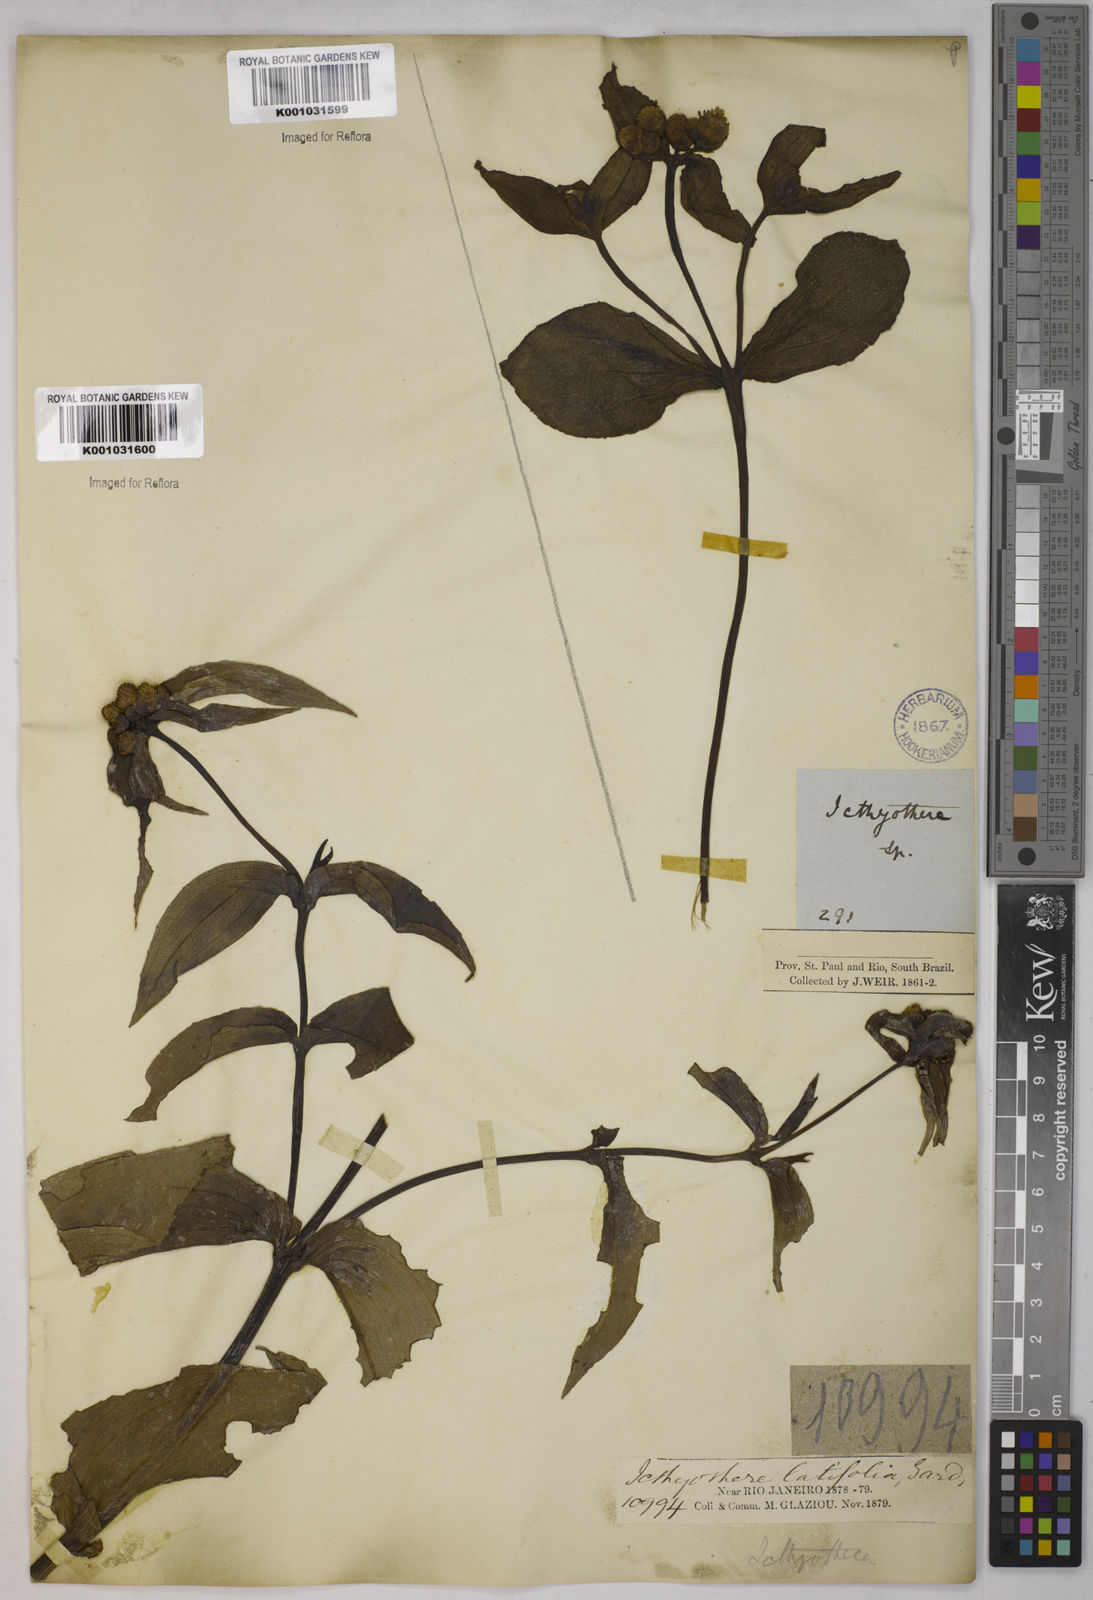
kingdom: Plantae
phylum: Tracheophyta
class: Magnoliopsida
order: Asterales
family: Asteraceae
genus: Ichthyothere
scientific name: Ichthyothere latifolia
